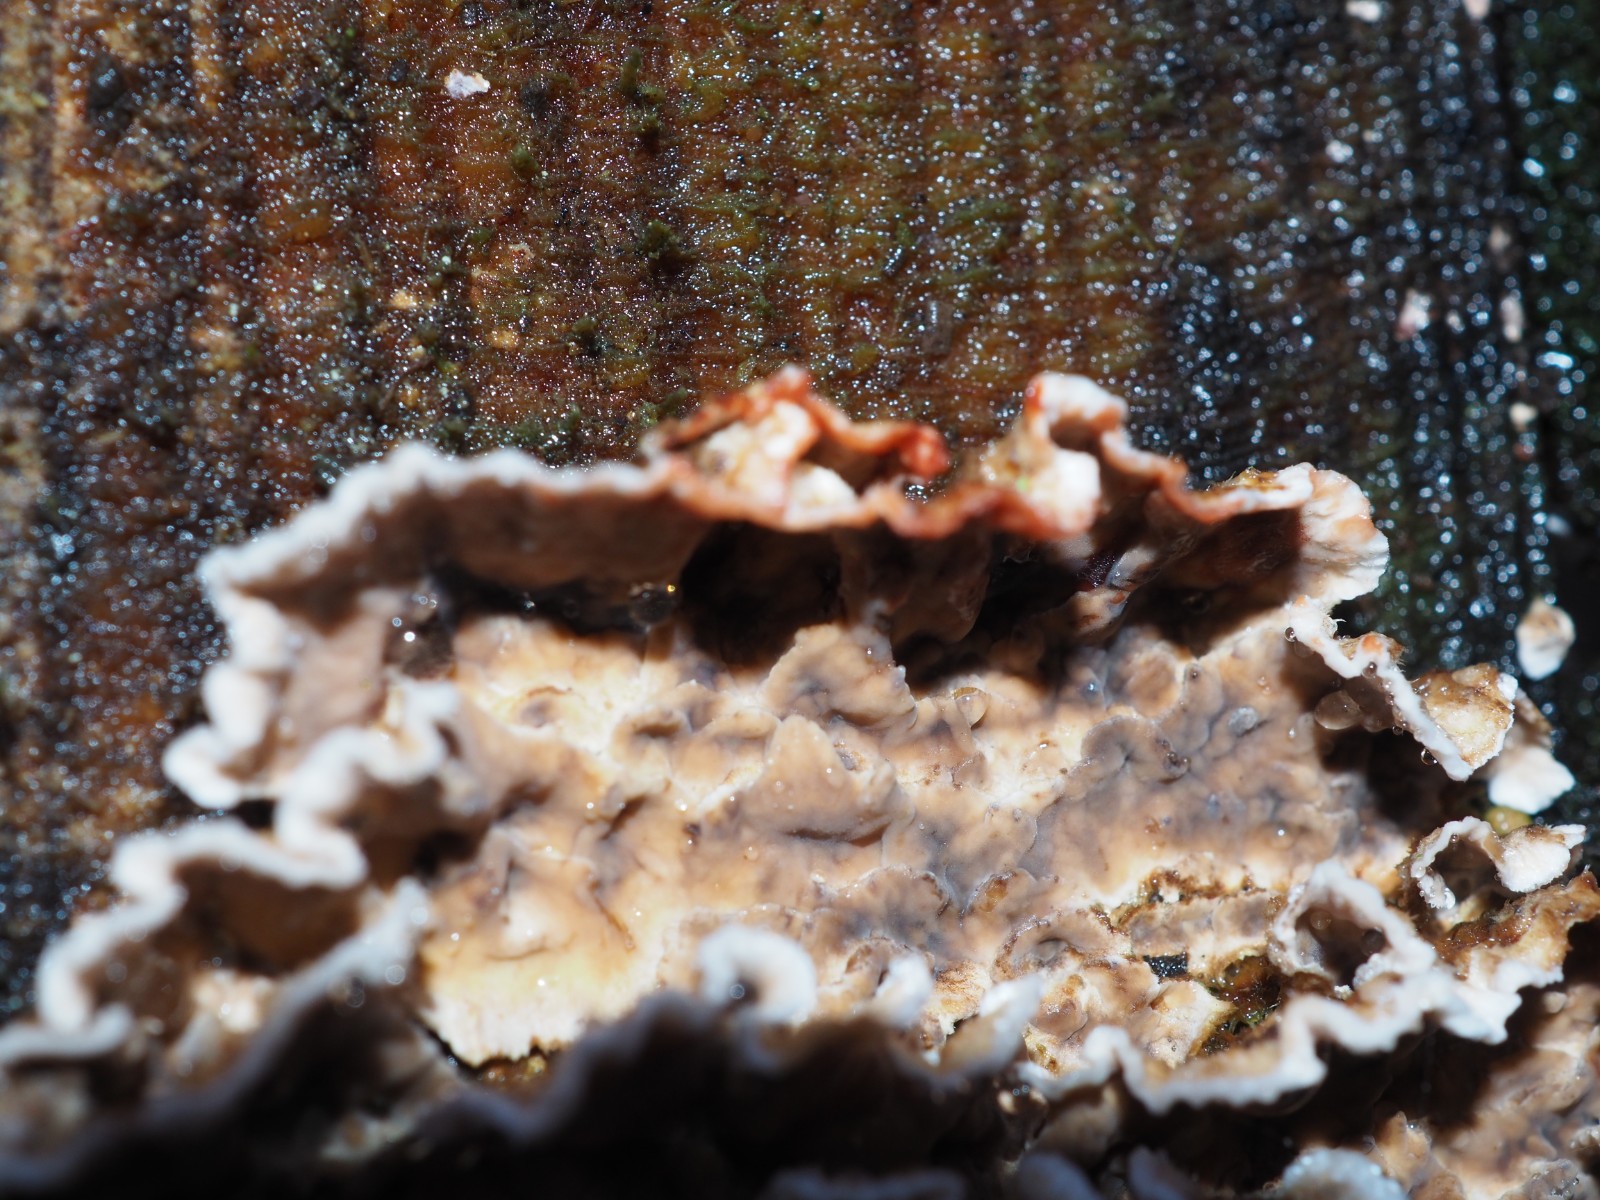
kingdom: Fungi
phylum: Basidiomycota
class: Agaricomycetes
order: Russulales
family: Stereaceae
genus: Stereum
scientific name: Stereum sanguinolentum
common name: blødende lædersvamp
